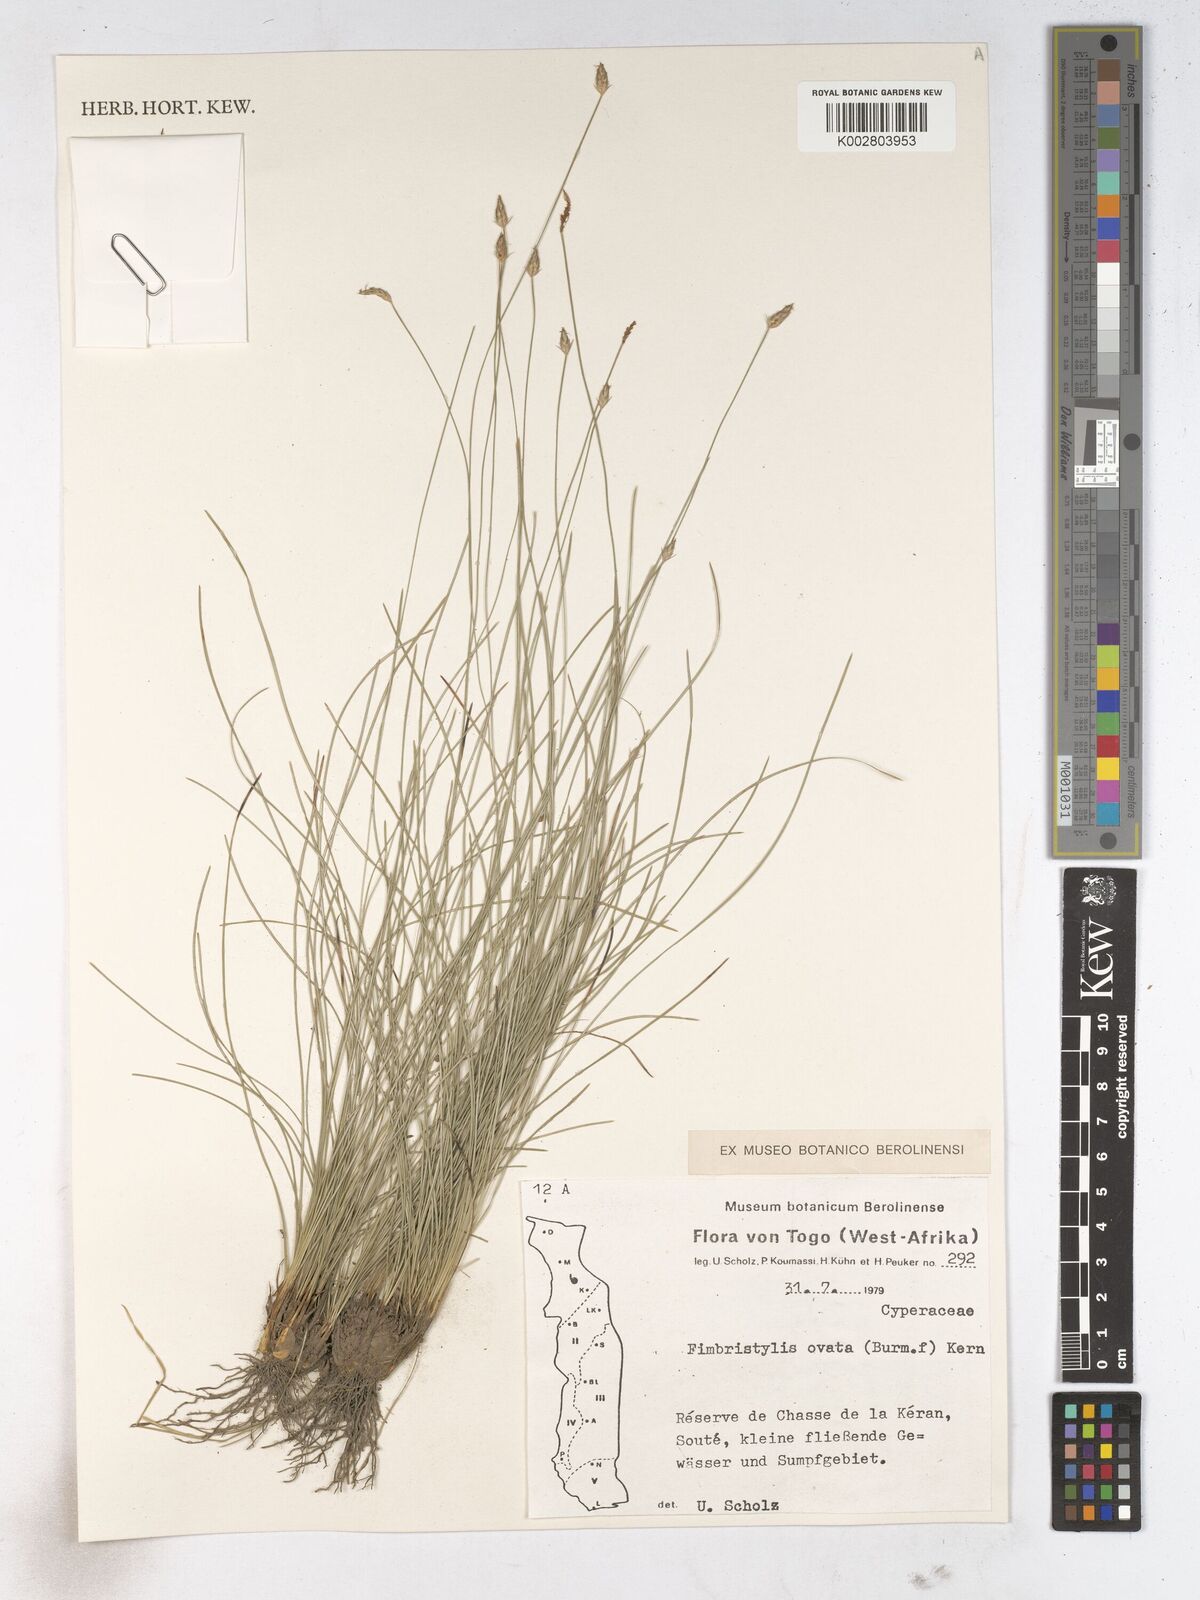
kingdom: Plantae
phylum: Tracheophyta
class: Liliopsida
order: Poales
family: Cyperaceae
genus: Abildgaardia
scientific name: Abildgaardia ovata
